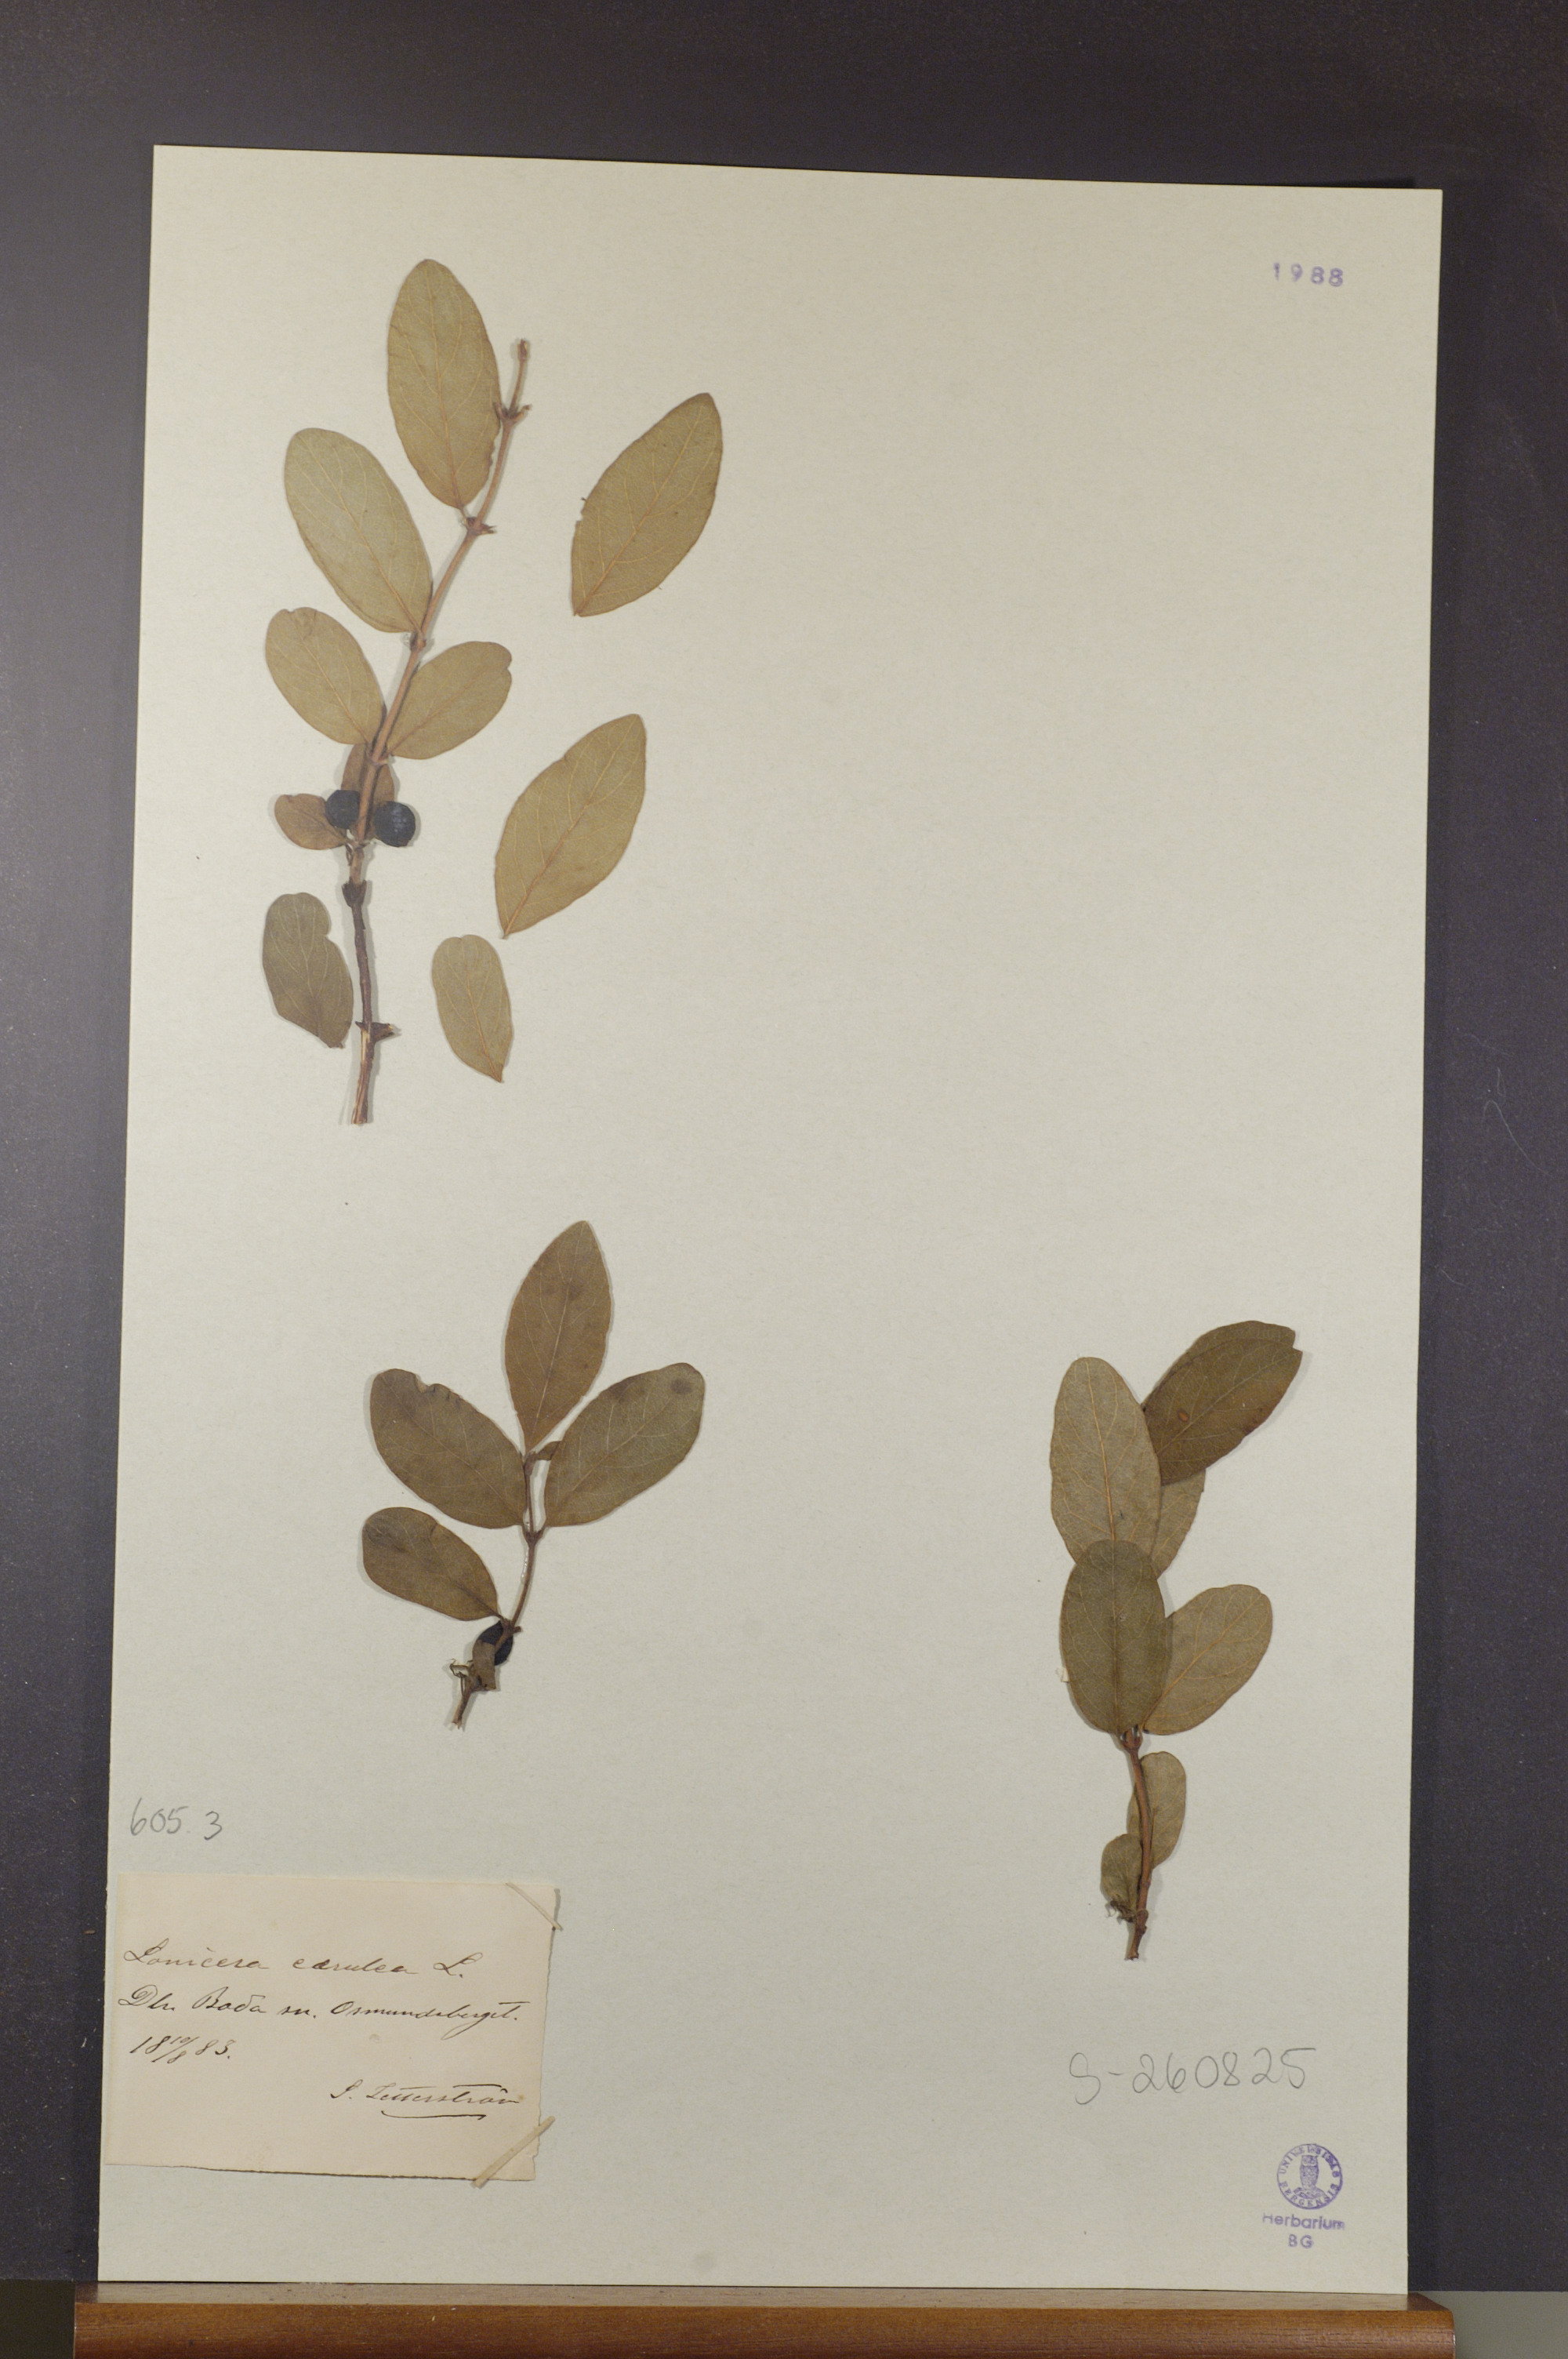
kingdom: Plantae
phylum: Tracheophyta
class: Magnoliopsida
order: Dipsacales
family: Caprifoliaceae
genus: Lonicera
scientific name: Lonicera caerulea
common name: Blue honeysuckle
